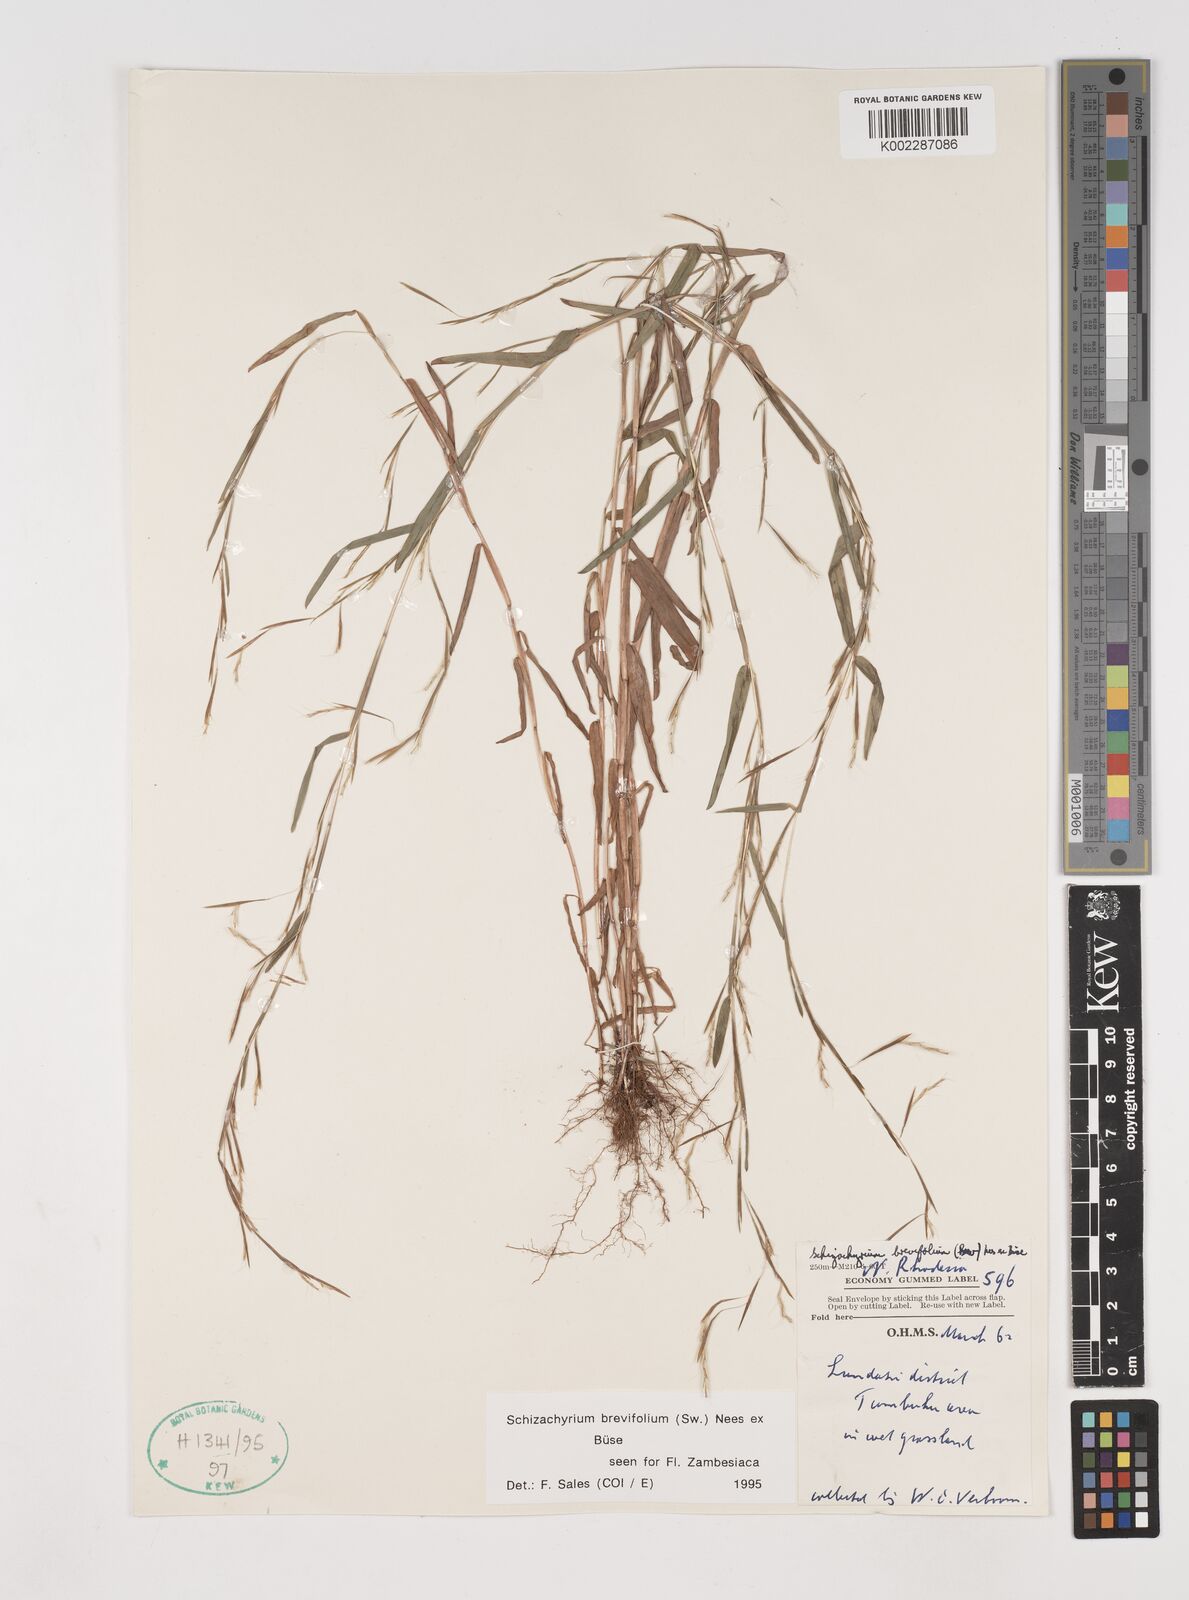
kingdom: Plantae
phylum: Tracheophyta
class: Liliopsida
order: Poales
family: Poaceae
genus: Schizachyrium
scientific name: Schizachyrium brevifolium
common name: Serillo dulce
